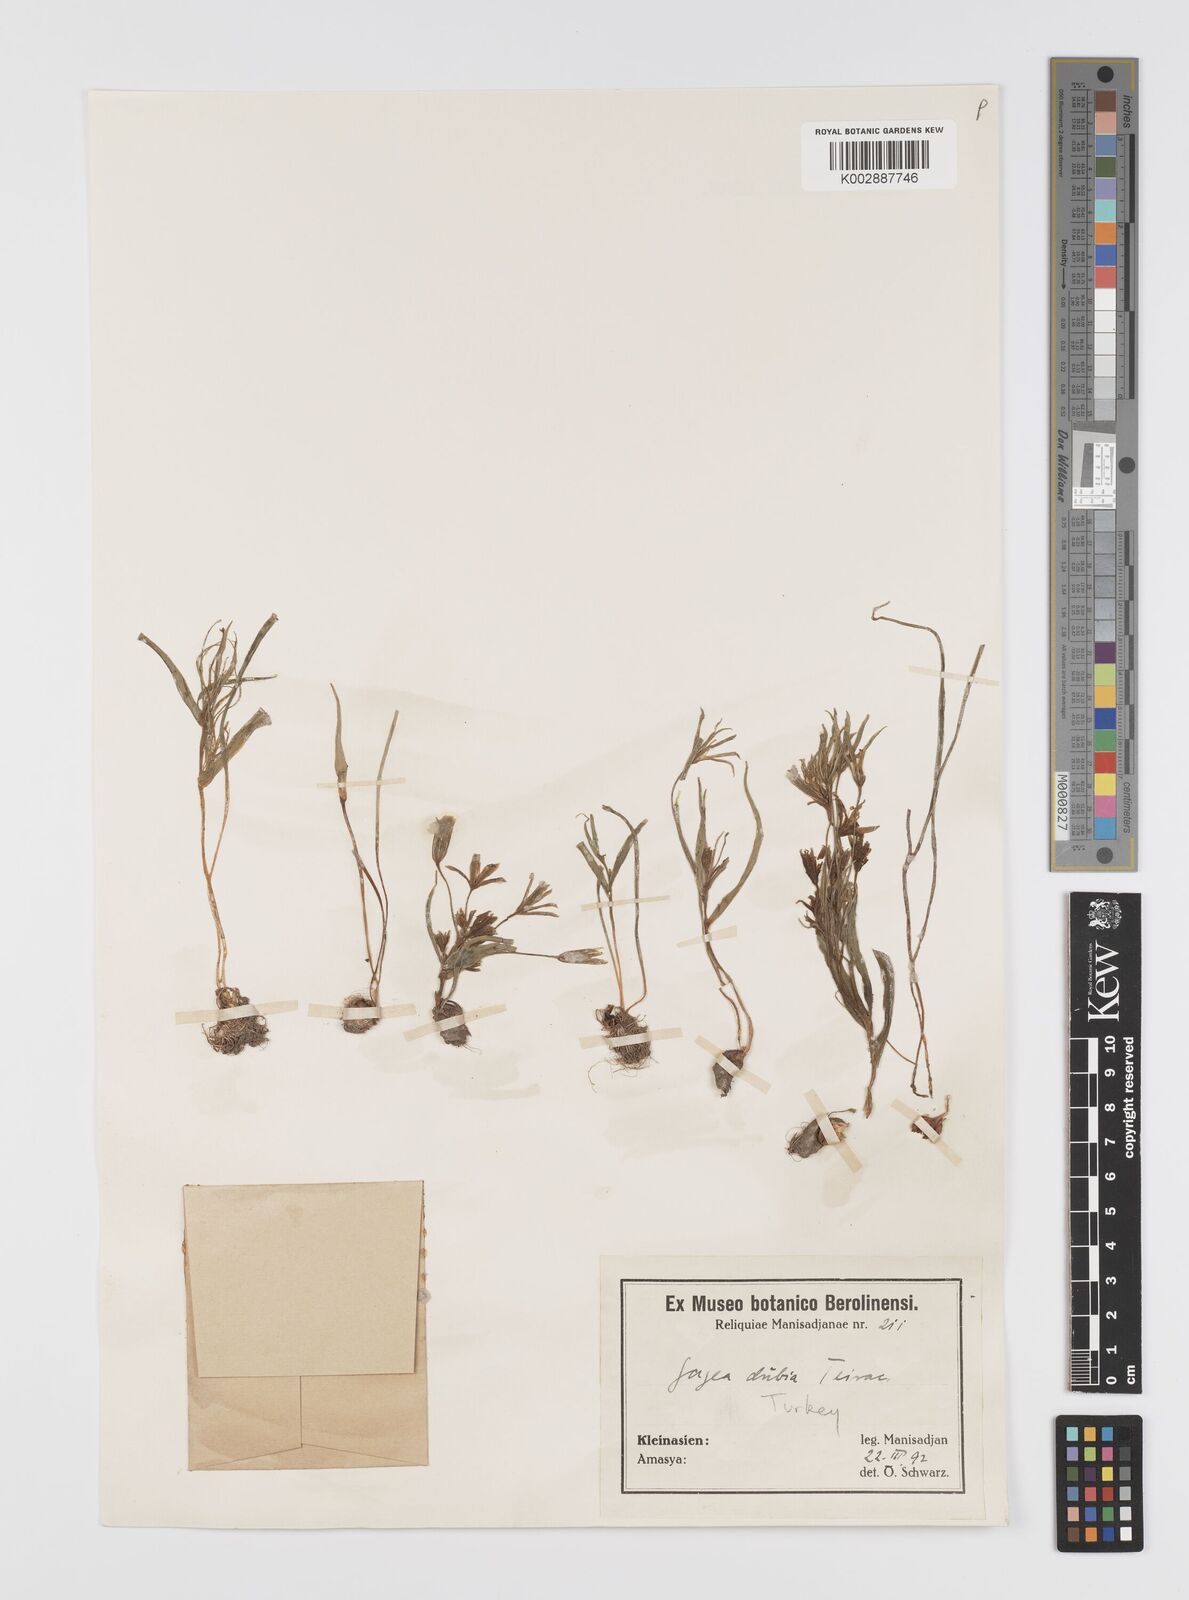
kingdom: Plantae
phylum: Tracheophyta
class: Liliopsida
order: Liliales
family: Liliaceae
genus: Gagea
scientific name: Gagea minima
